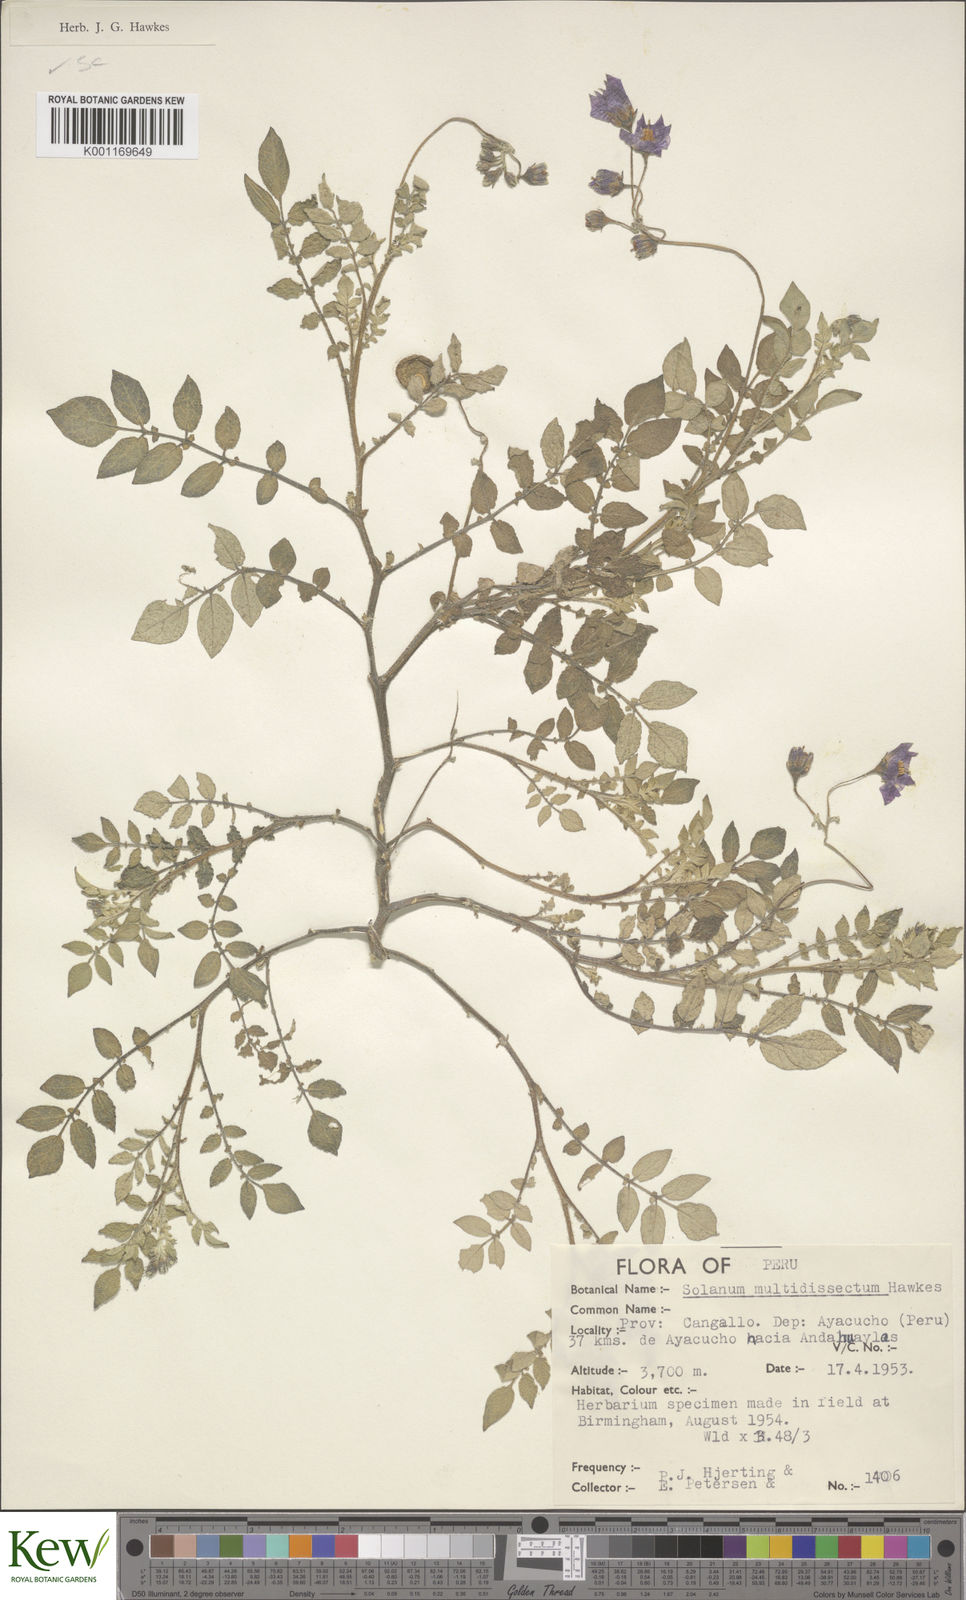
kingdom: Plantae
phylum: Tracheophyta
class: Magnoliopsida
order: Solanales
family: Solanaceae
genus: Solanum
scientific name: Solanum candolleanum
